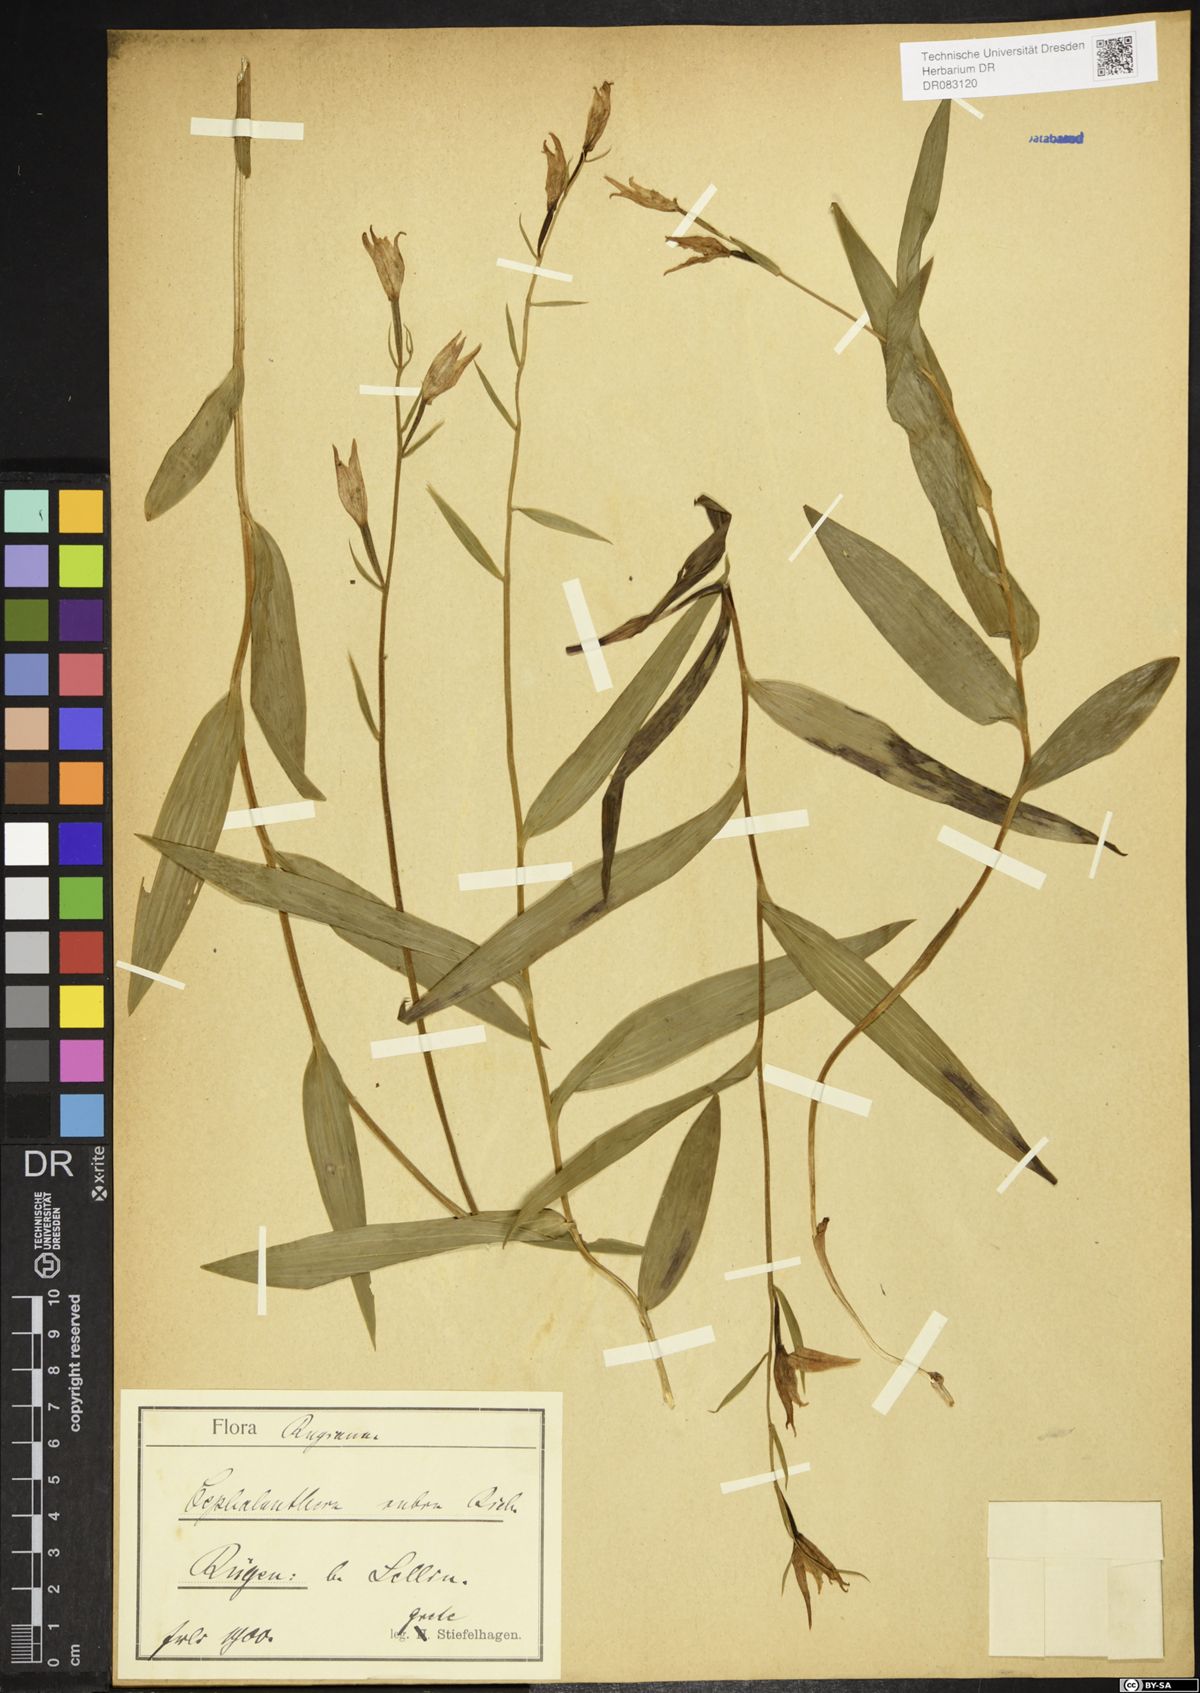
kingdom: Plantae
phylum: Tracheophyta
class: Liliopsida
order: Asparagales
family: Orchidaceae
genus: Cephalanthera
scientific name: Cephalanthera rubra
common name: Red helleborine
